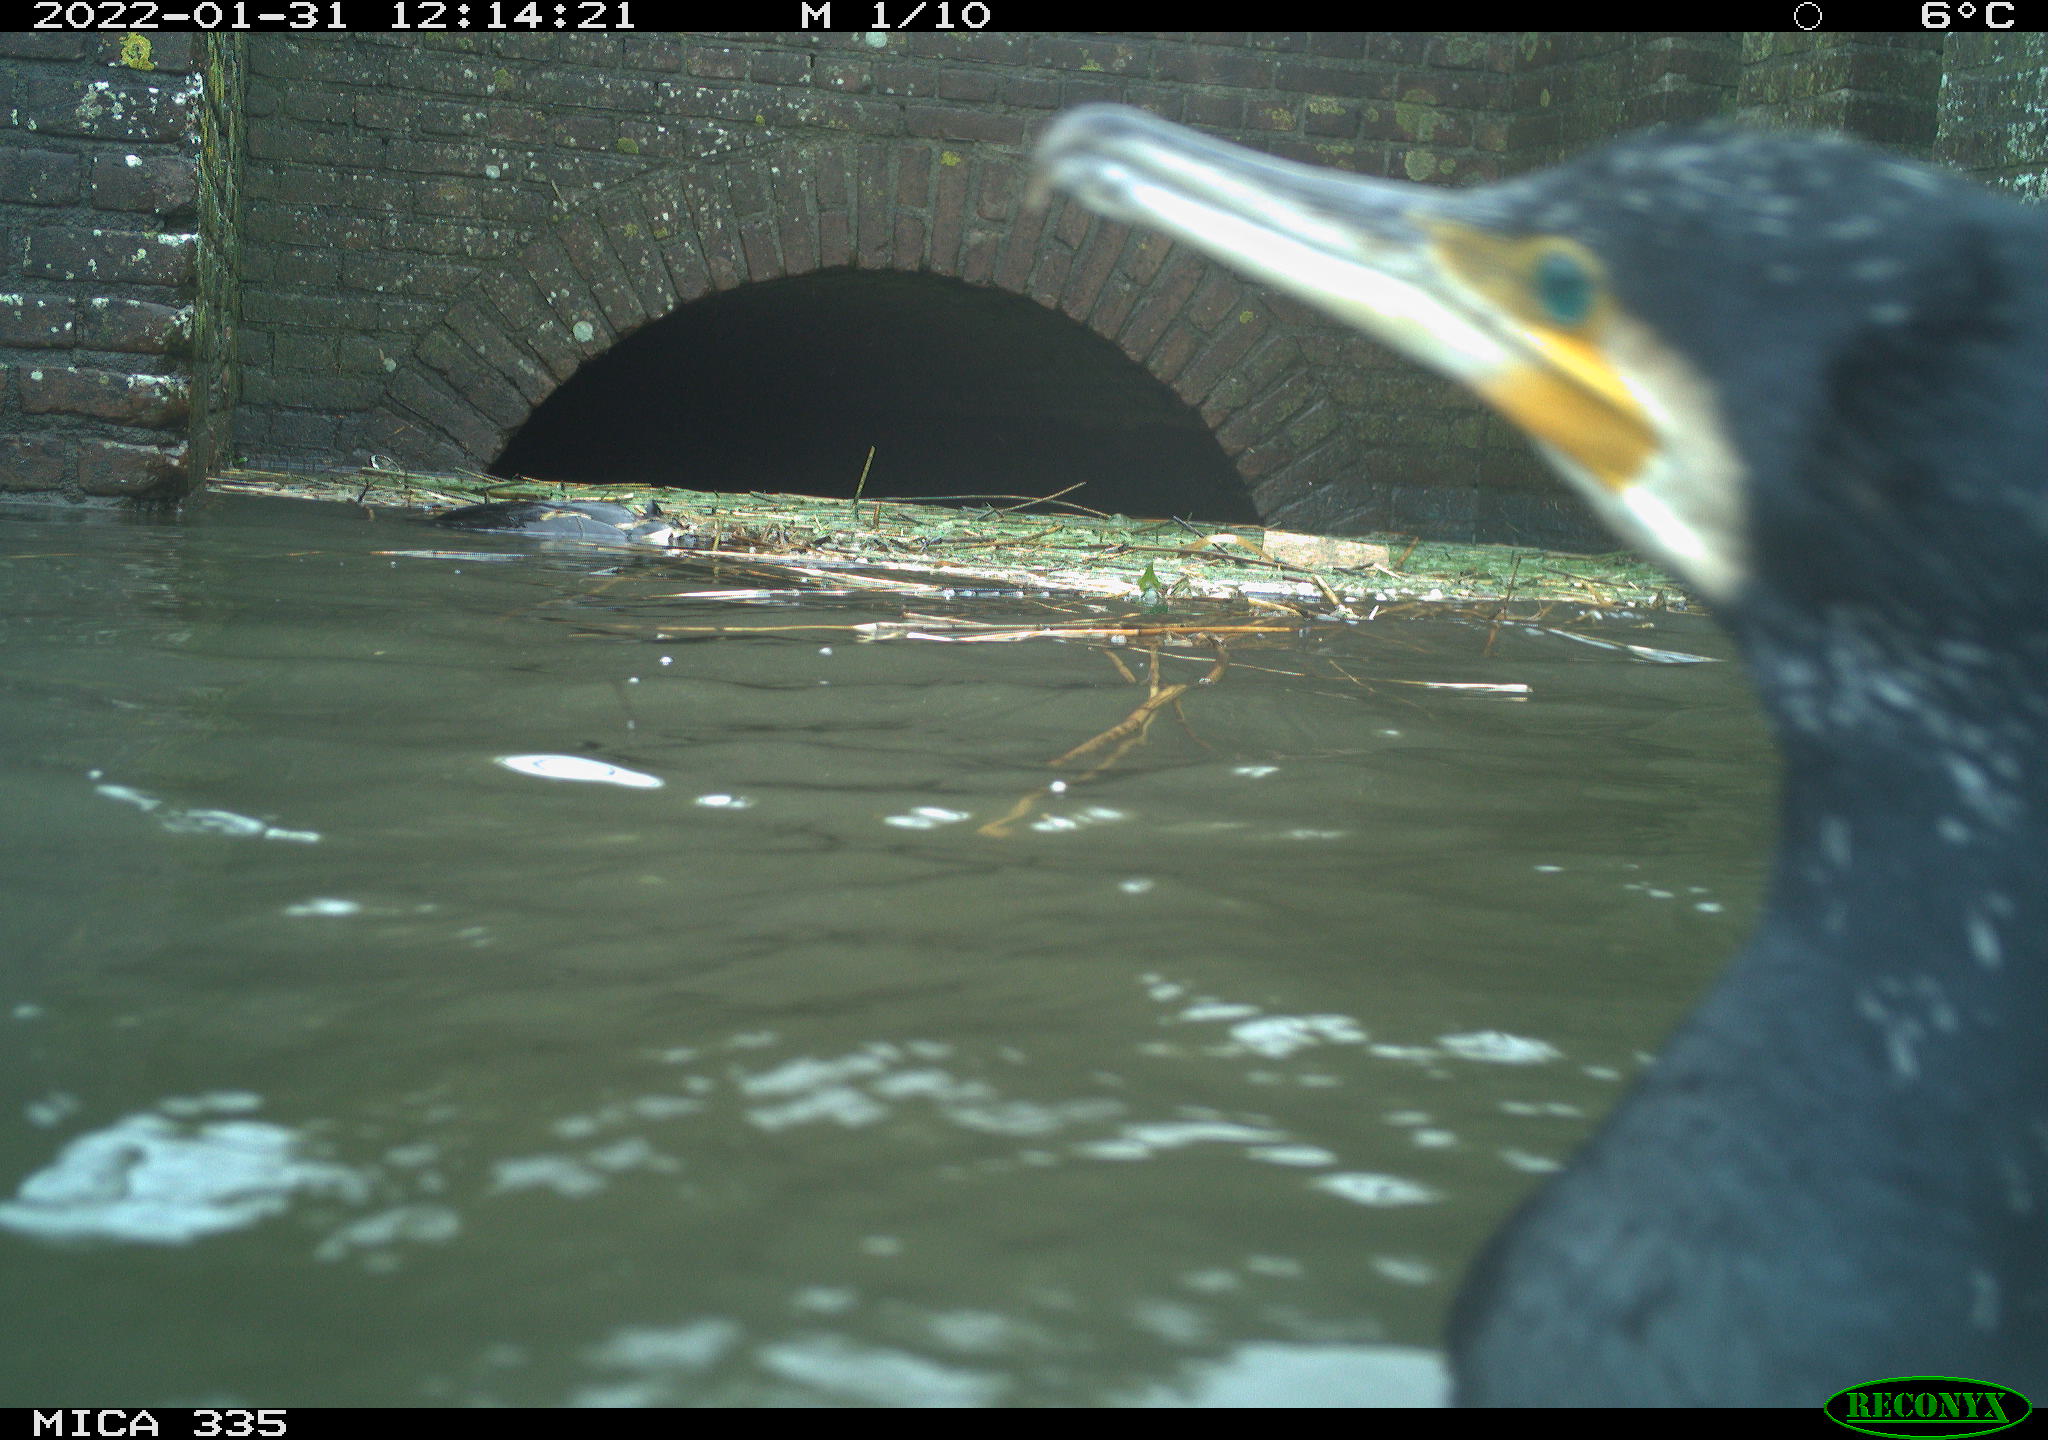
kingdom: Animalia
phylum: Chordata
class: Aves
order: Suliformes
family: Phalacrocoracidae
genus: Phalacrocorax
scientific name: Phalacrocorax carbo
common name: Great cormorant
